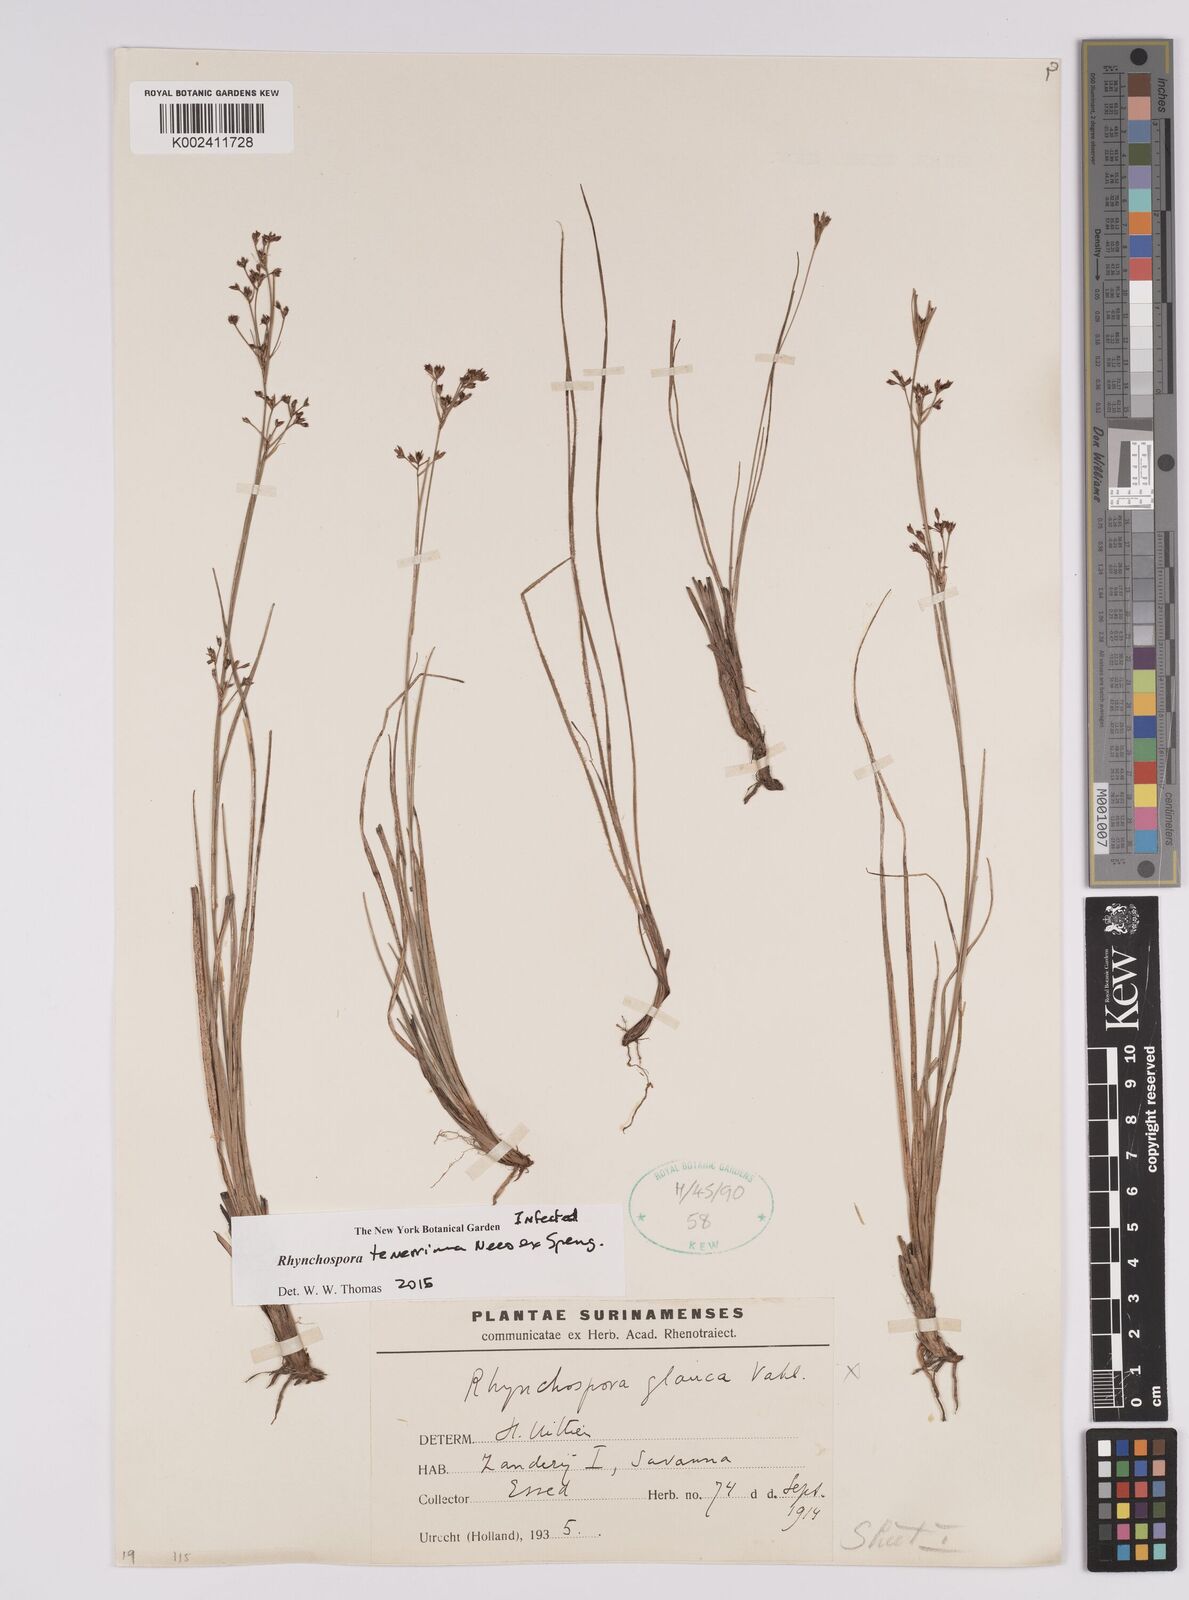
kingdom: Plantae
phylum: Tracheophyta
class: Liliopsida
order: Poales
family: Cyperaceae
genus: Rhynchospora
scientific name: Rhynchospora tenerrima
